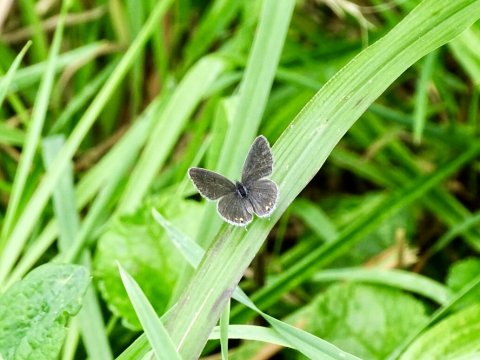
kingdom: Animalia
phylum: Arthropoda
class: Insecta
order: Lepidoptera
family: Lycaenidae
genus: Elkalyce
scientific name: Elkalyce comyntas
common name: Eastern Tailed-Blue
